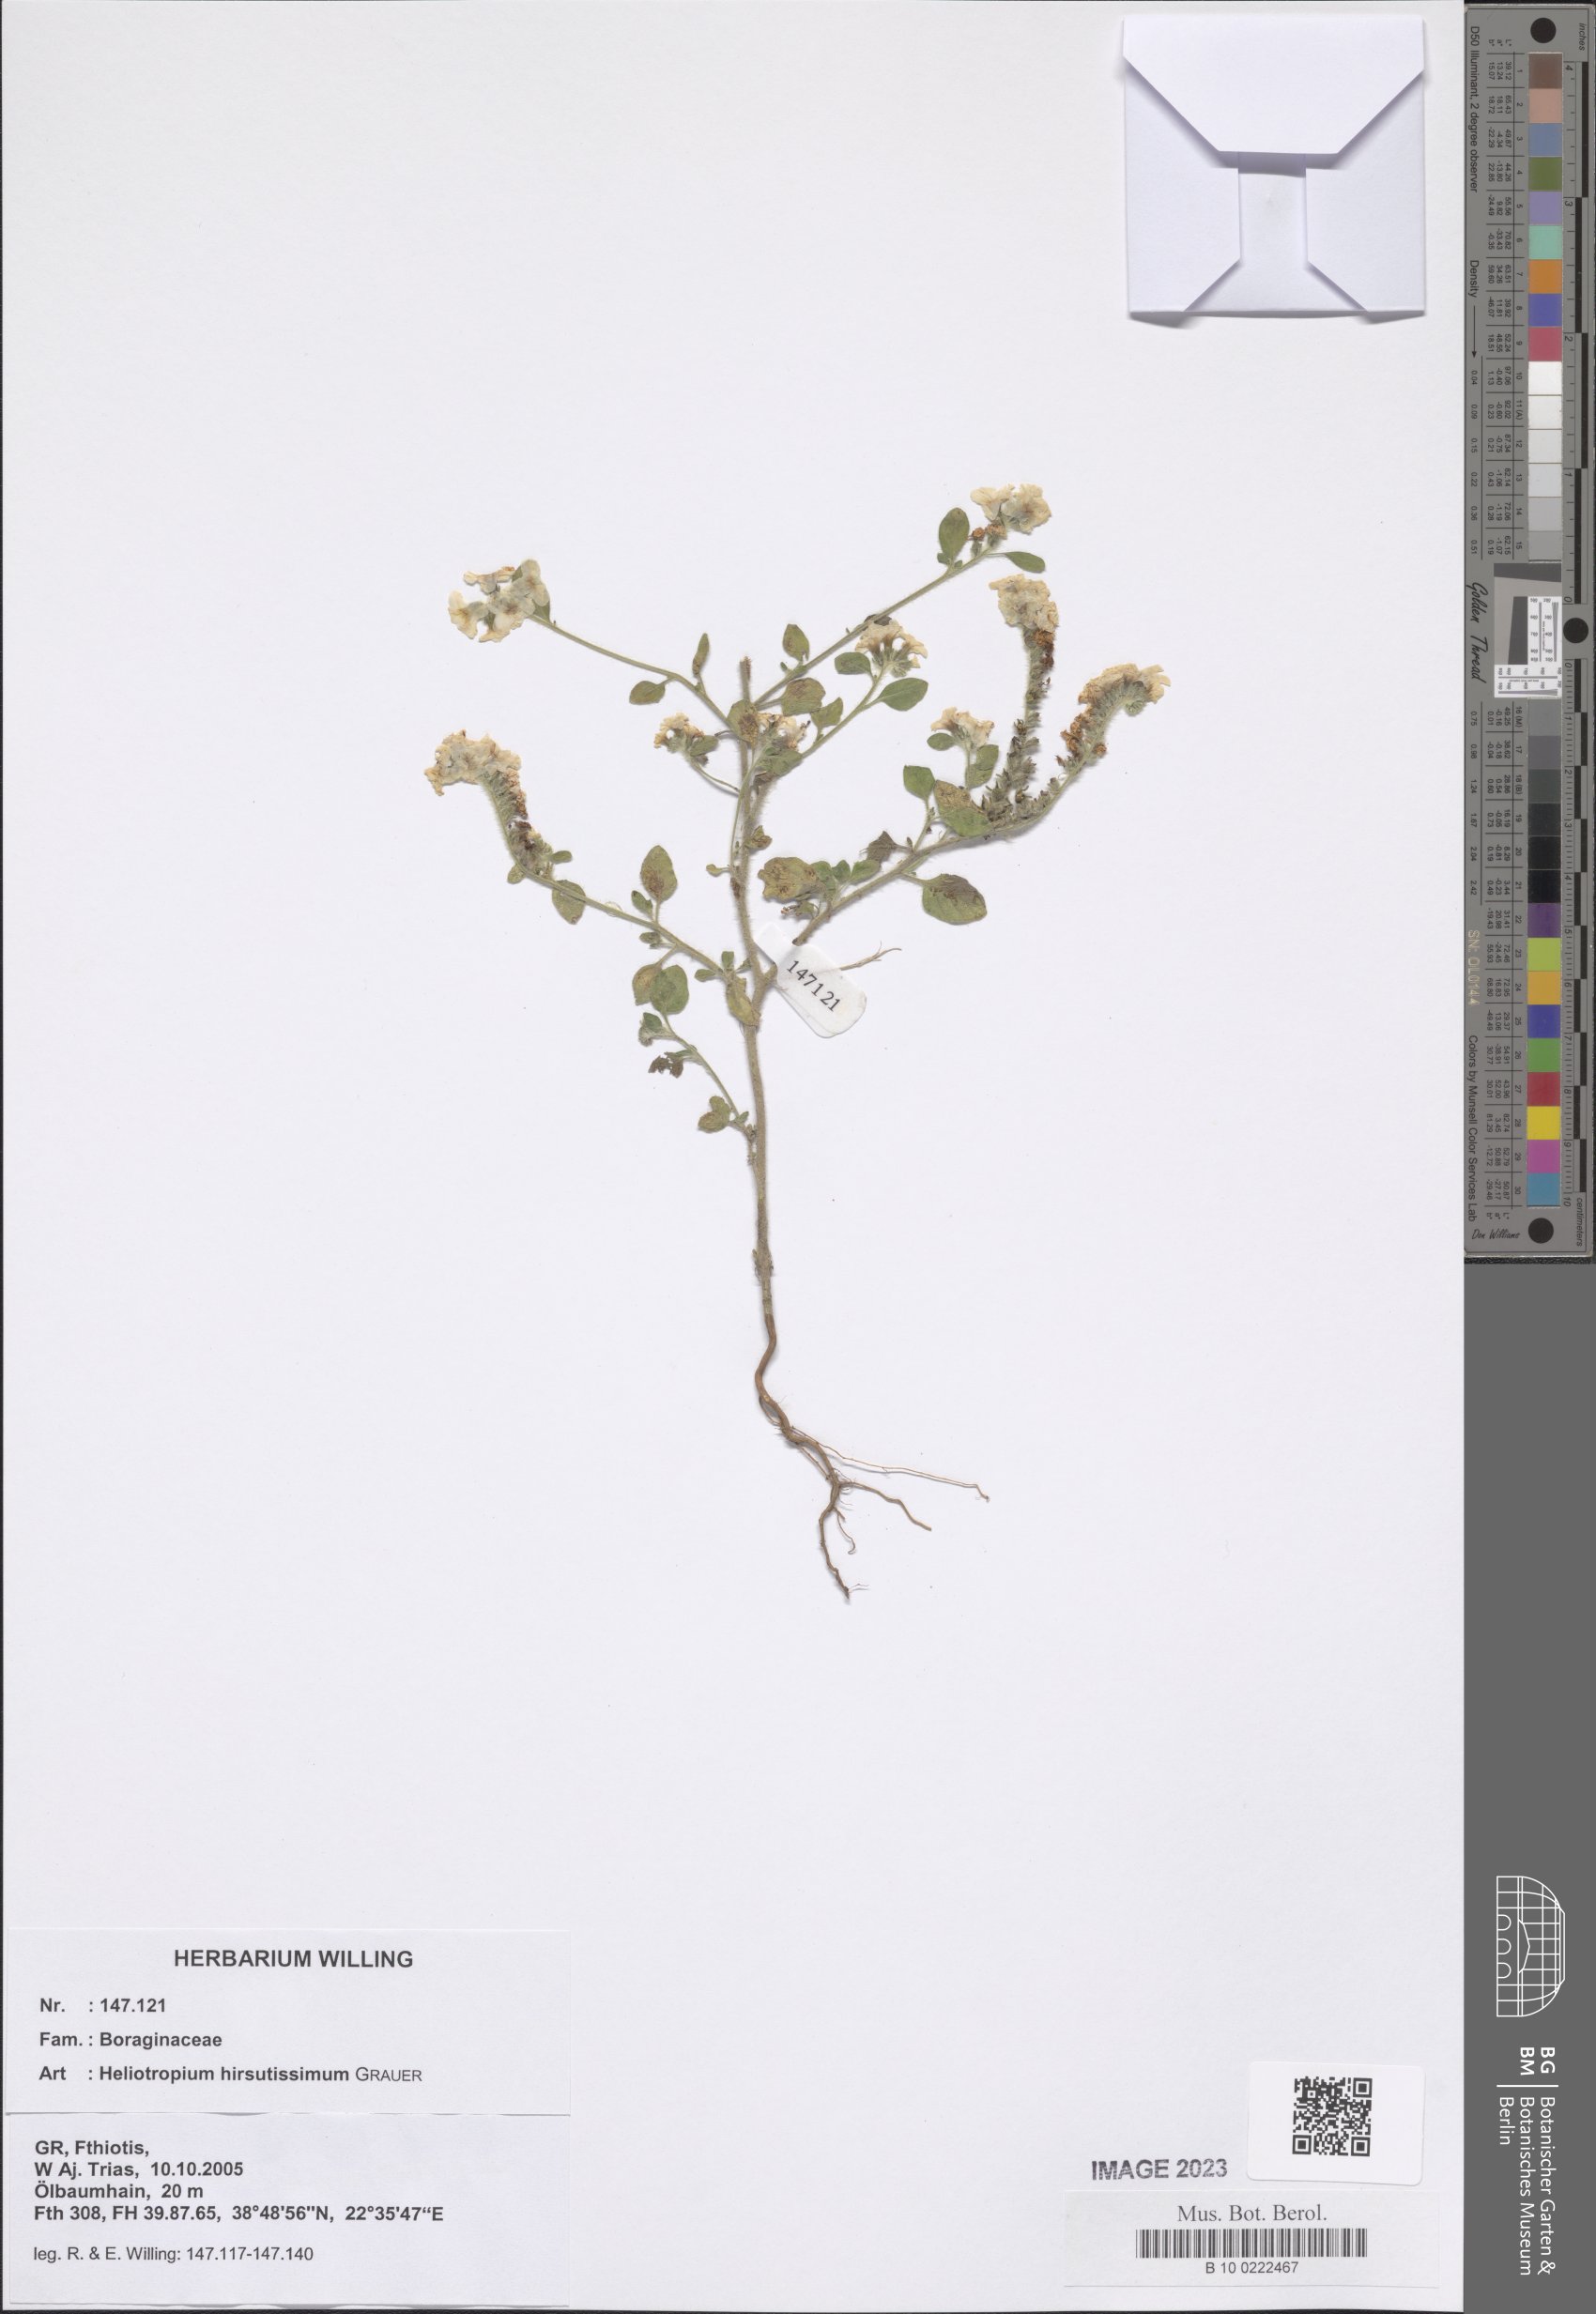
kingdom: Plantae
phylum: Tracheophyta
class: Magnoliopsida
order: Boraginales
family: Heliotropiaceae
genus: Heliotropium
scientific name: Heliotropium hirsutissimum
